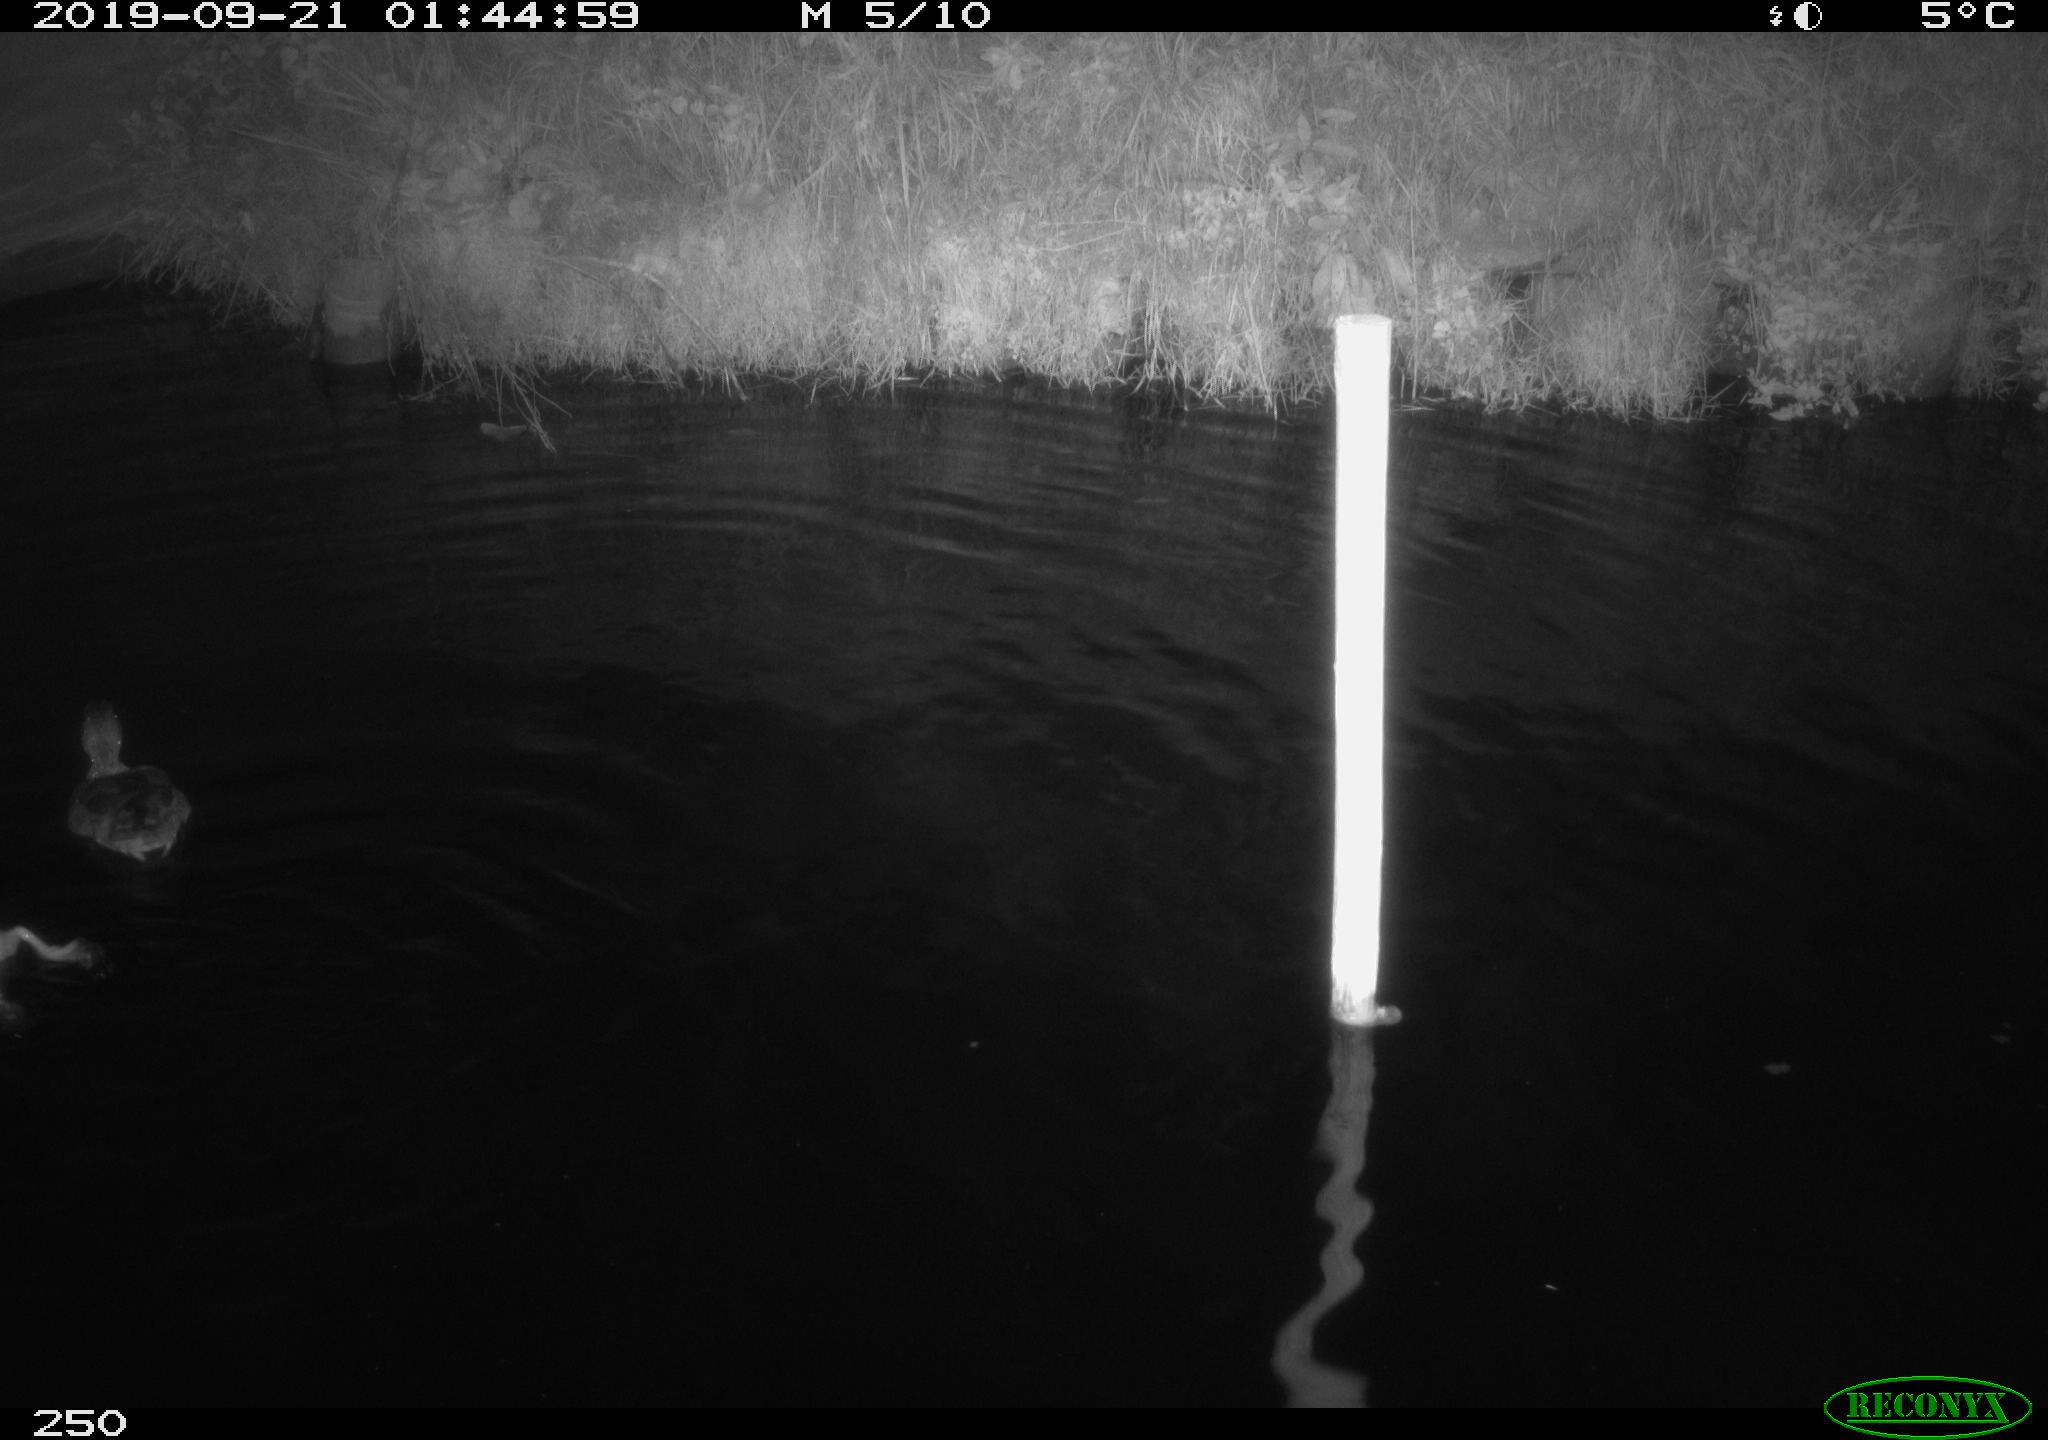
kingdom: Animalia
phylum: Chordata
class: Aves
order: Anseriformes
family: Anatidae
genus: Anas
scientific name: Anas platyrhynchos
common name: Mallard
